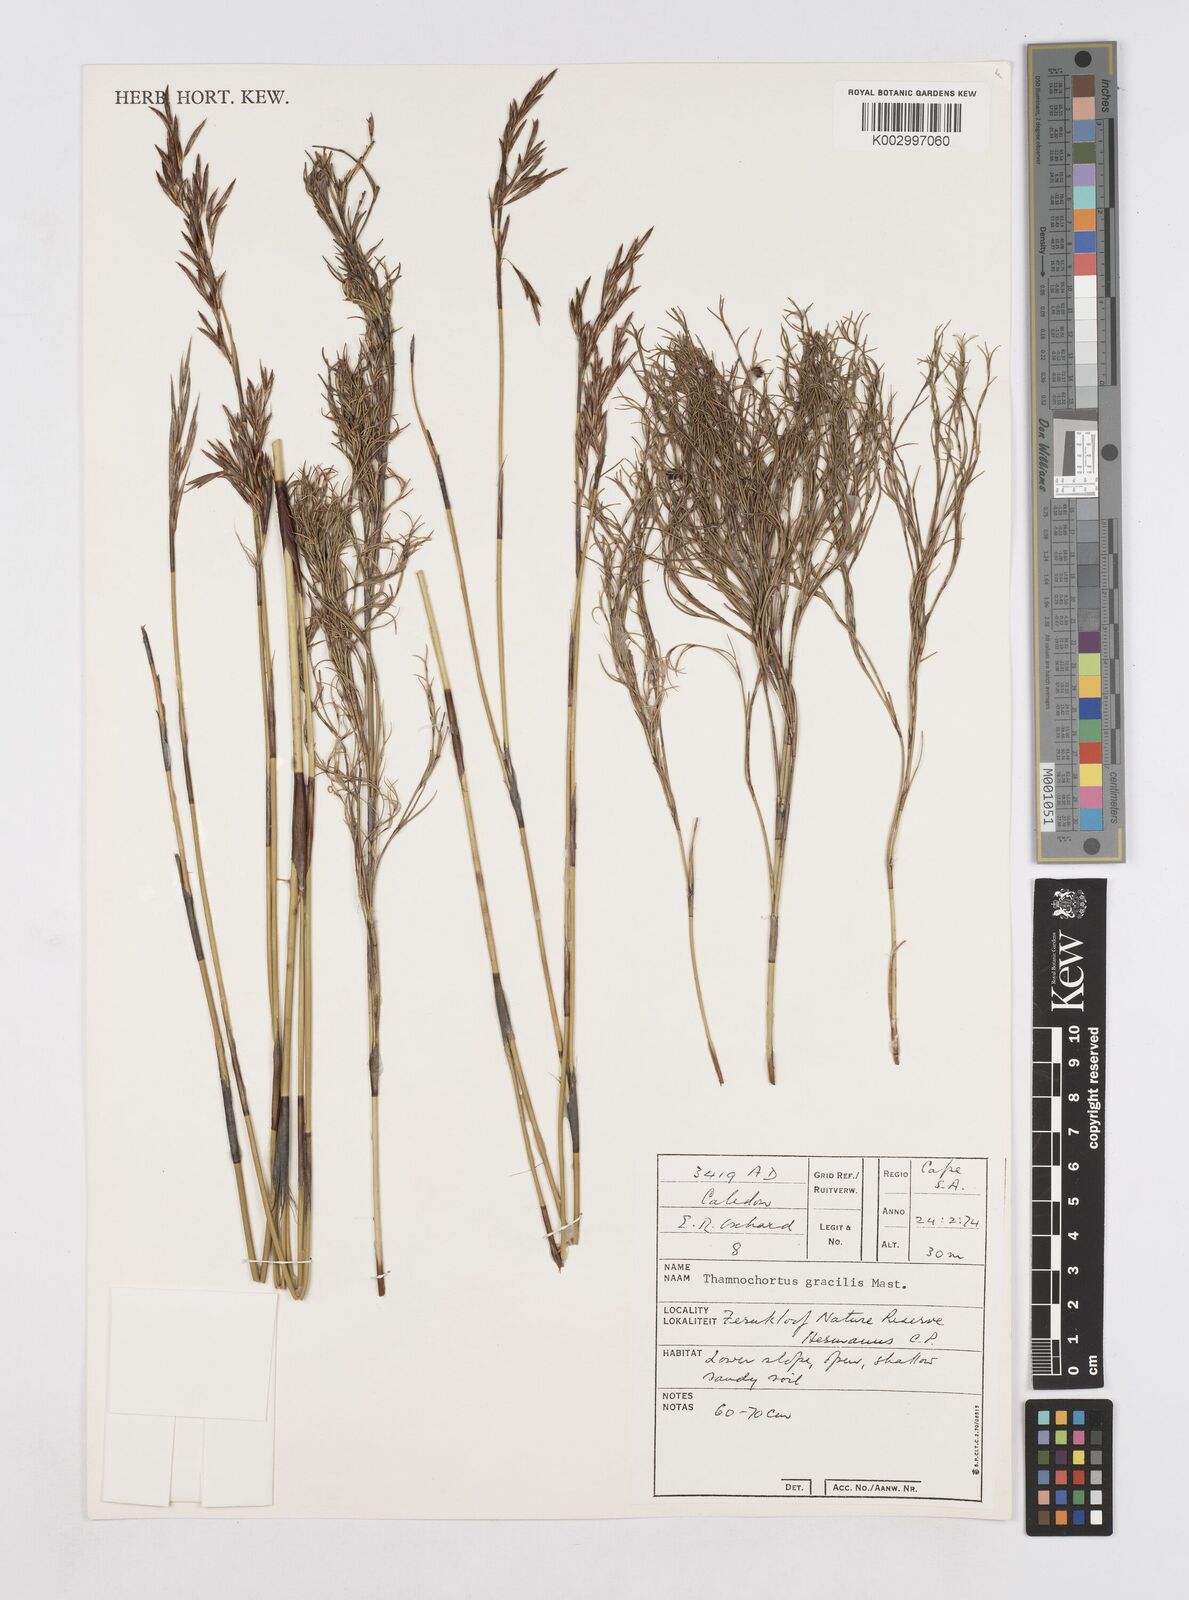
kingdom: Plantae
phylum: Tracheophyta
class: Liliopsida
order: Poales
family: Restionaceae
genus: Thamnochortus
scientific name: Thamnochortus gracilis
